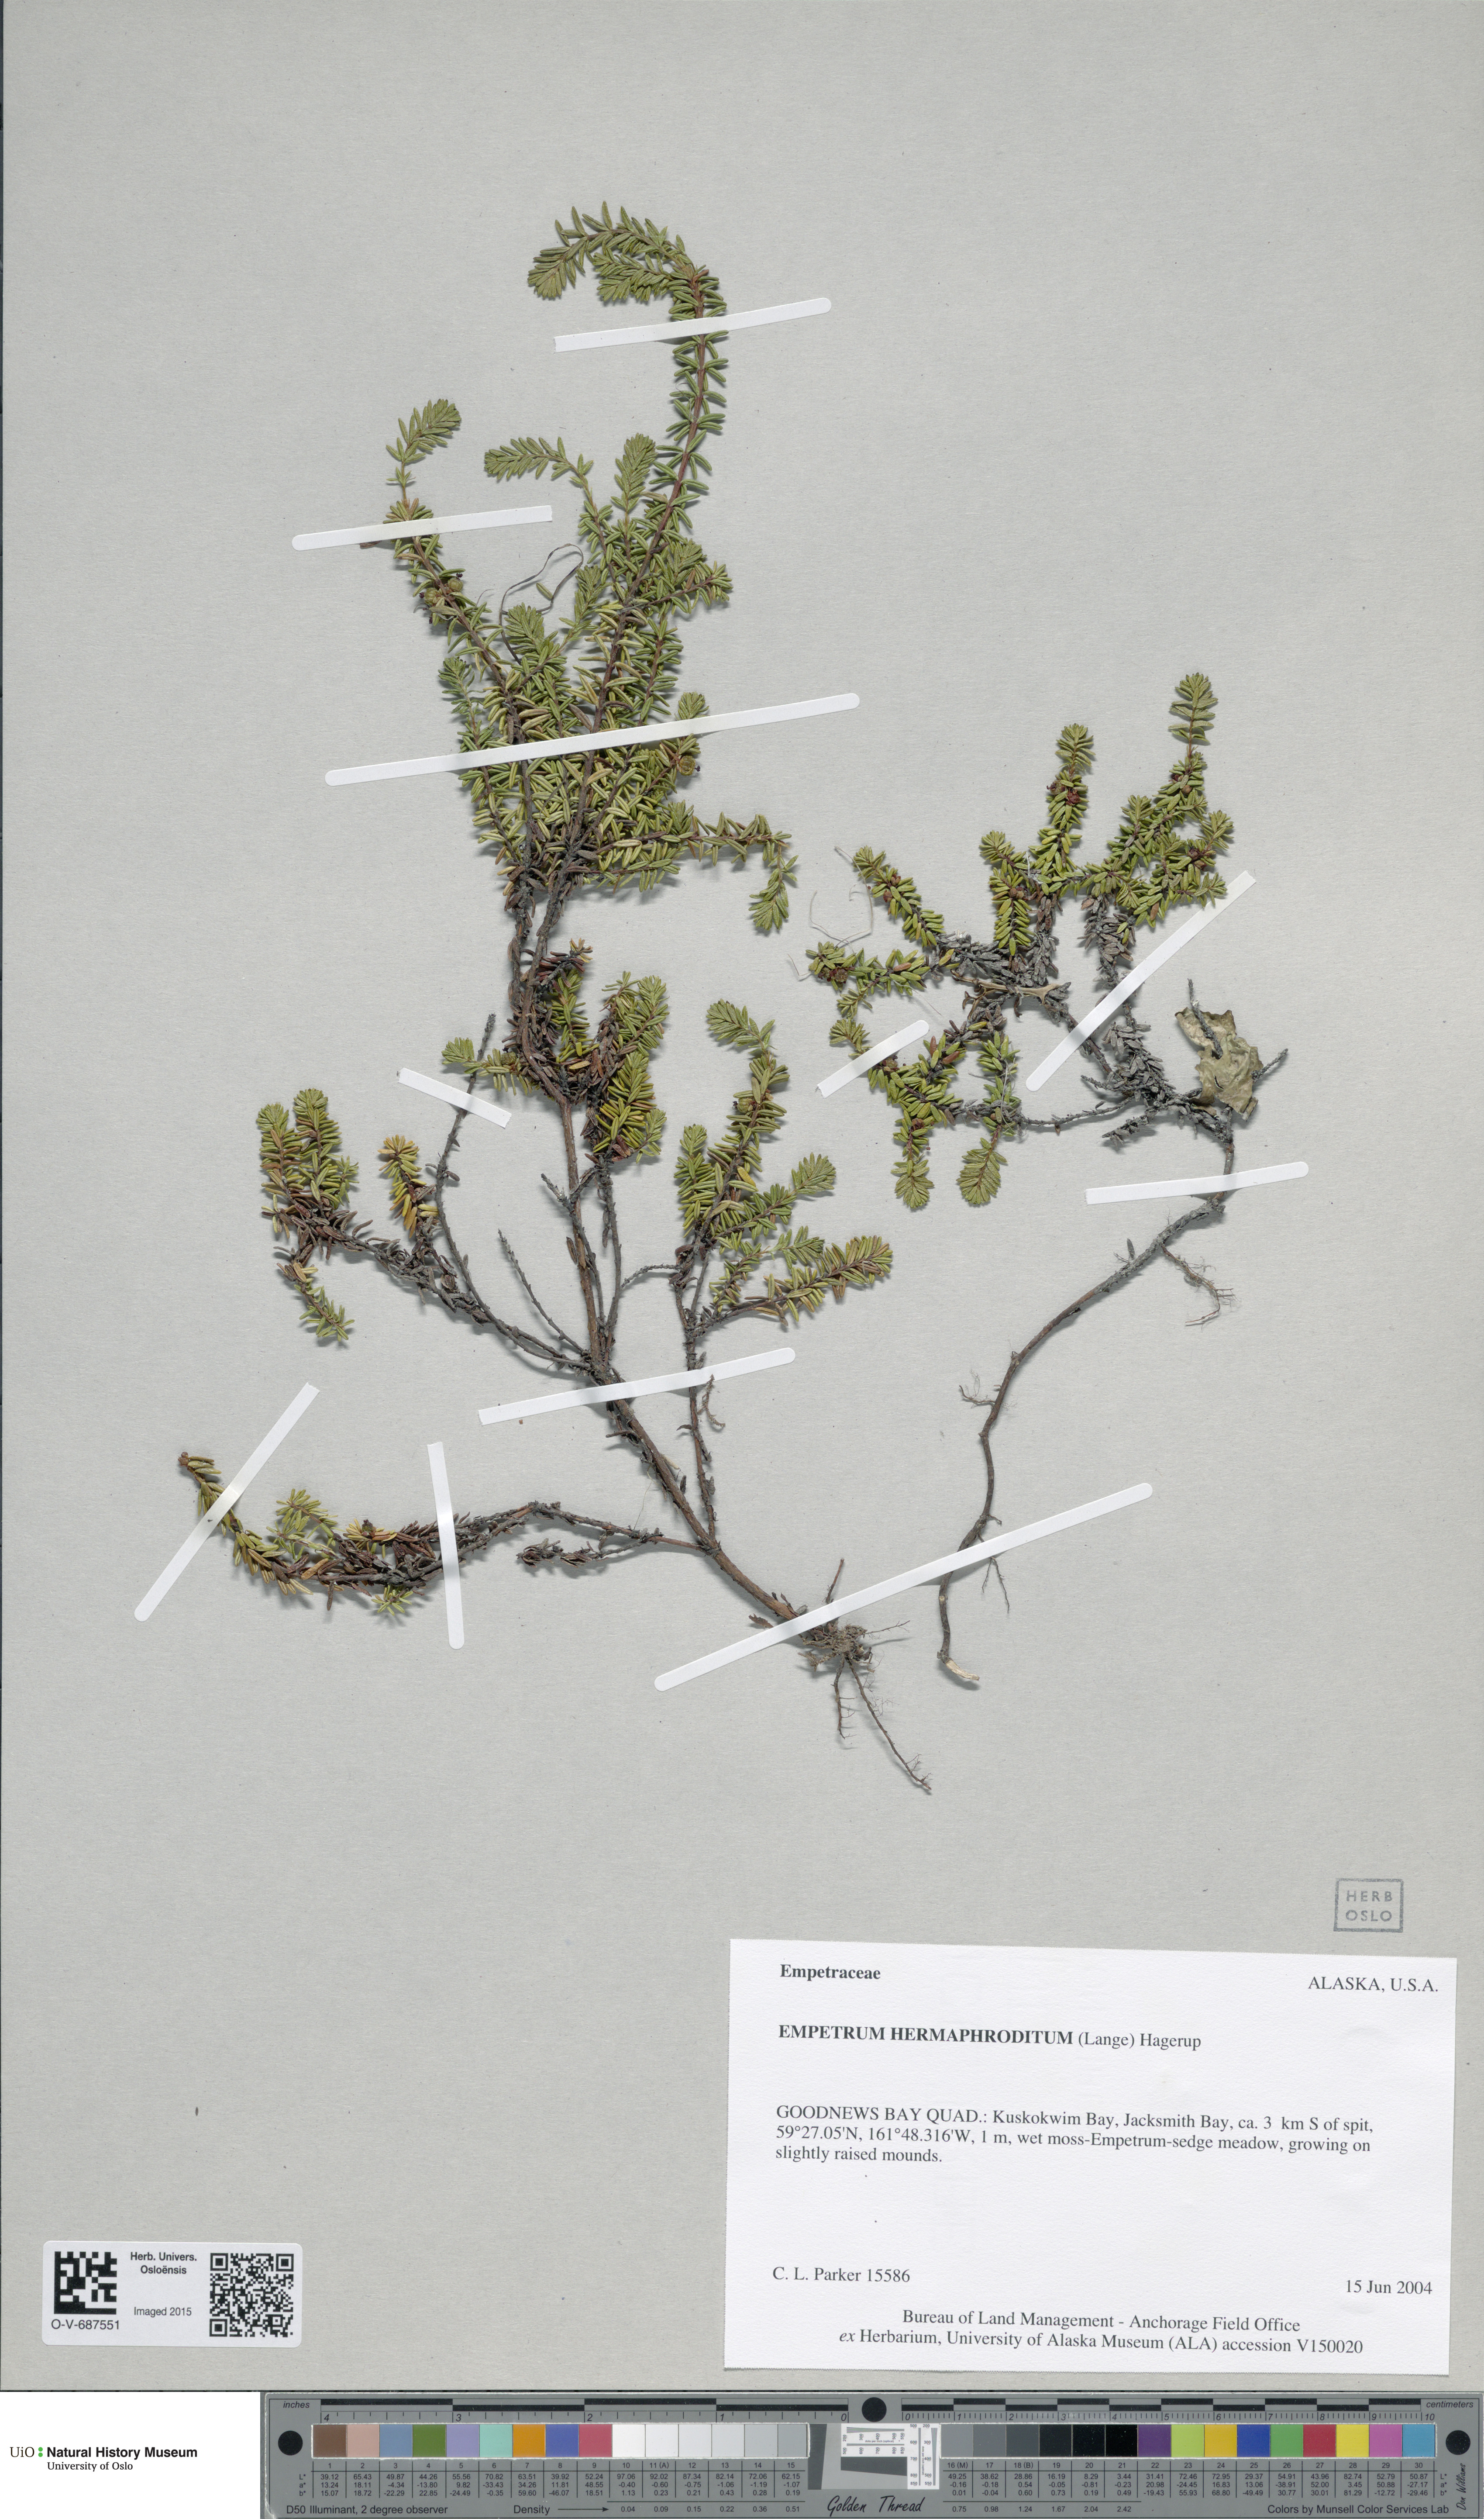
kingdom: Plantae
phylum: Tracheophyta
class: Magnoliopsida
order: Ericales
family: Ericaceae
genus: Empetrum
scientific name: Empetrum hermaphroditum
